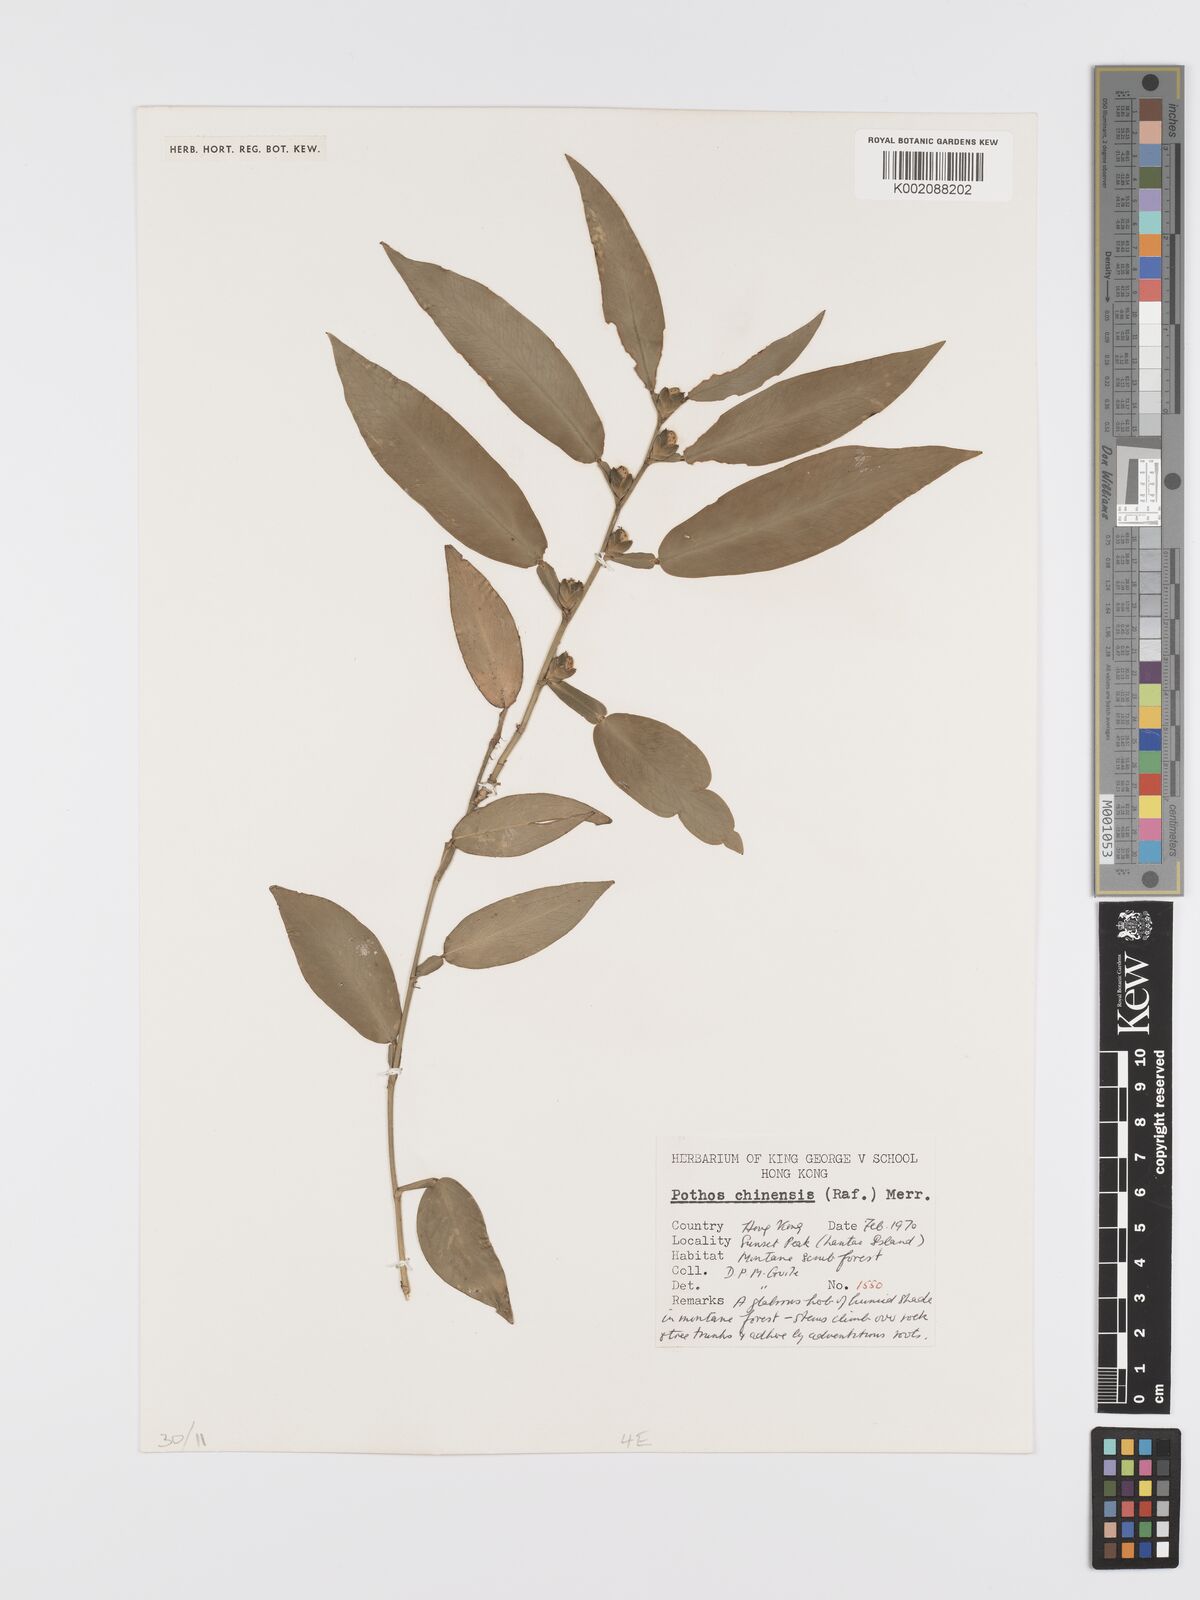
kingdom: Plantae
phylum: Tracheophyta
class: Liliopsida
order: Alismatales
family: Araceae
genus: Pothos
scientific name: Pothos chinensis
